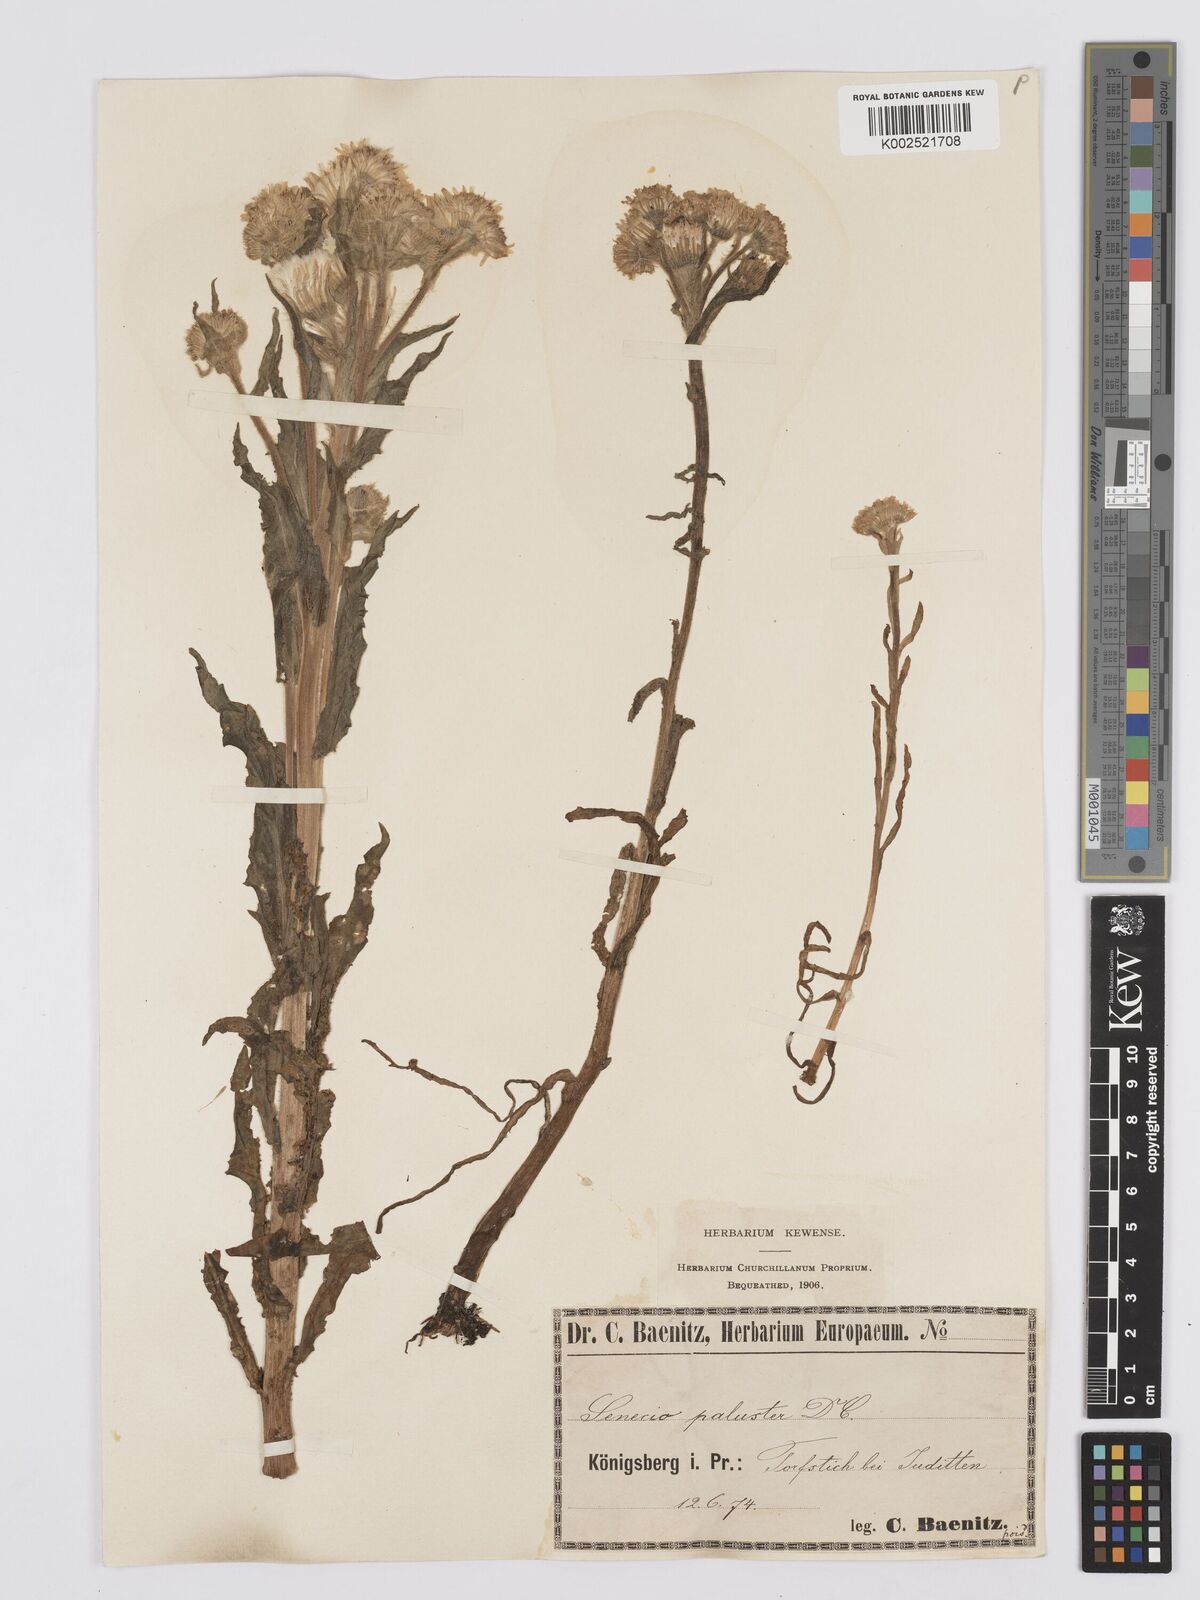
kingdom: Plantae
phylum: Tracheophyta
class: Magnoliopsida
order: Asterales
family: Asteraceae
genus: Tephroseris
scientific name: Tephroseris palustris
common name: Marsh fleawort
